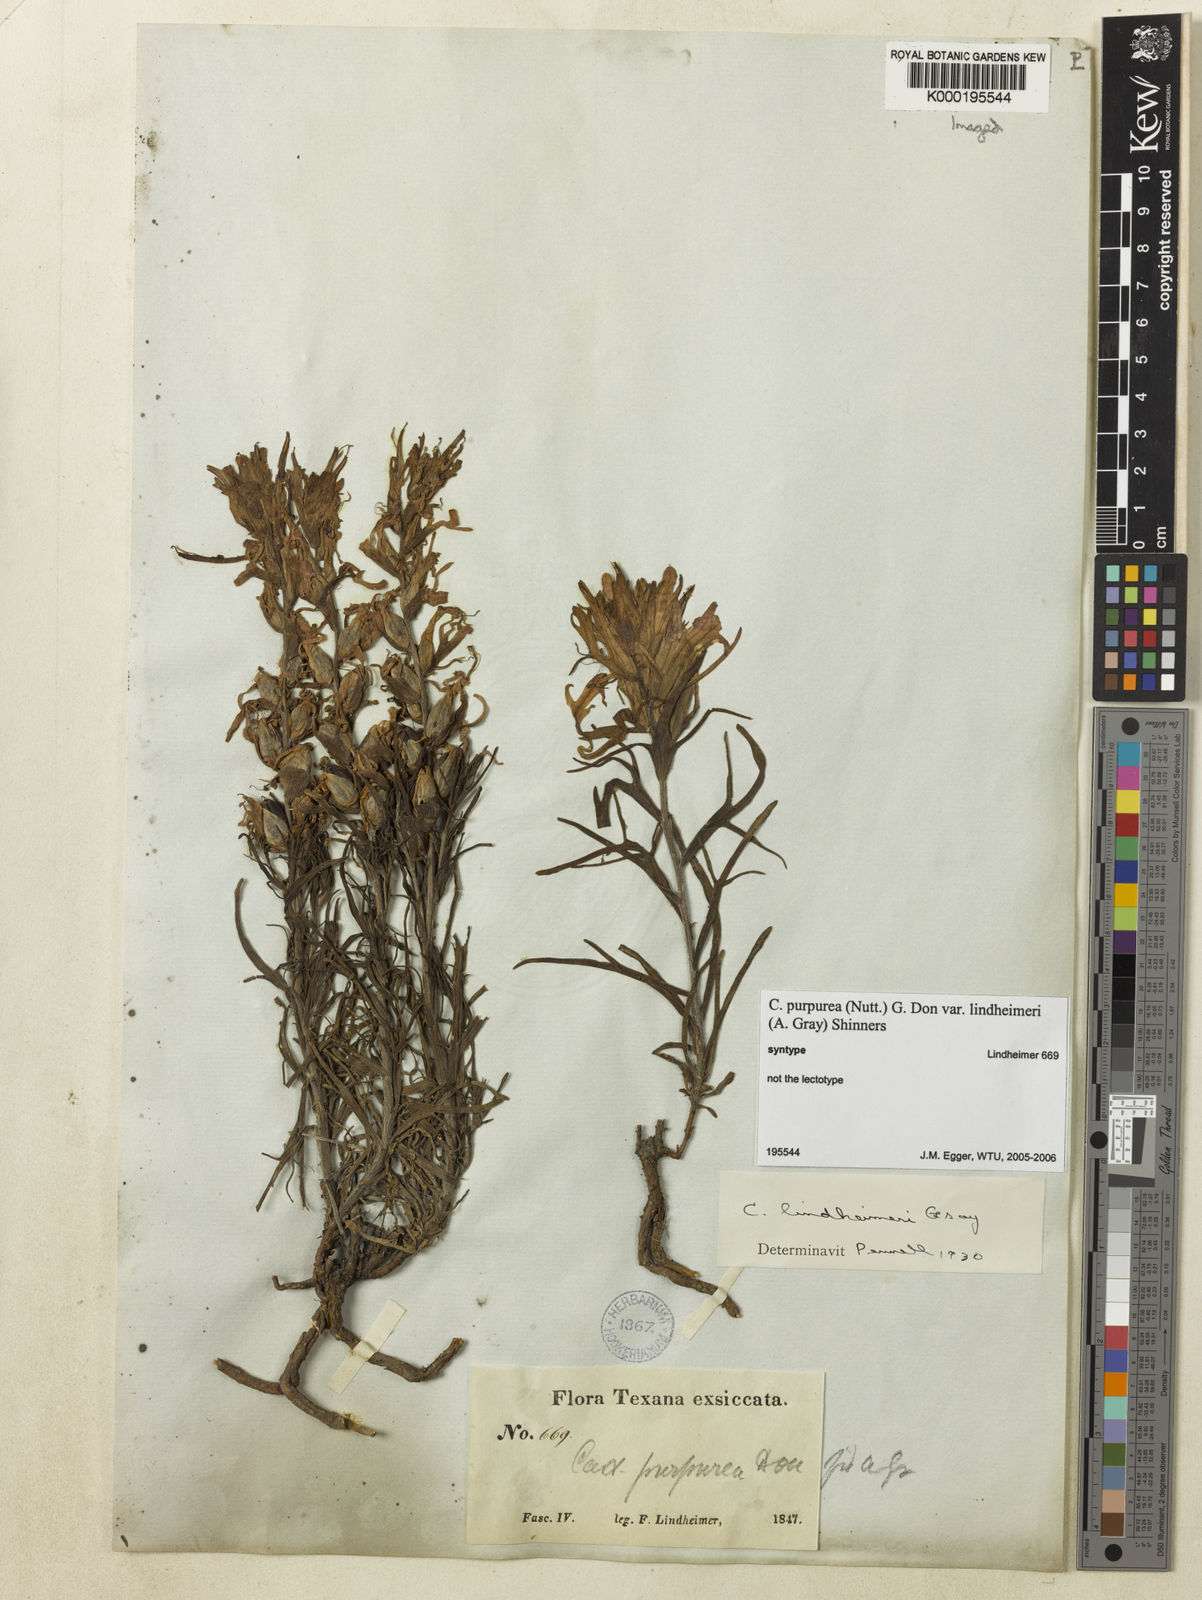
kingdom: Plantae
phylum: Tracheophyta
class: Magnoliopsida
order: Lamiales
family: Orobanchaceae
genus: Castilleja
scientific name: Castilleja purpurea
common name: Plains paintbrush
